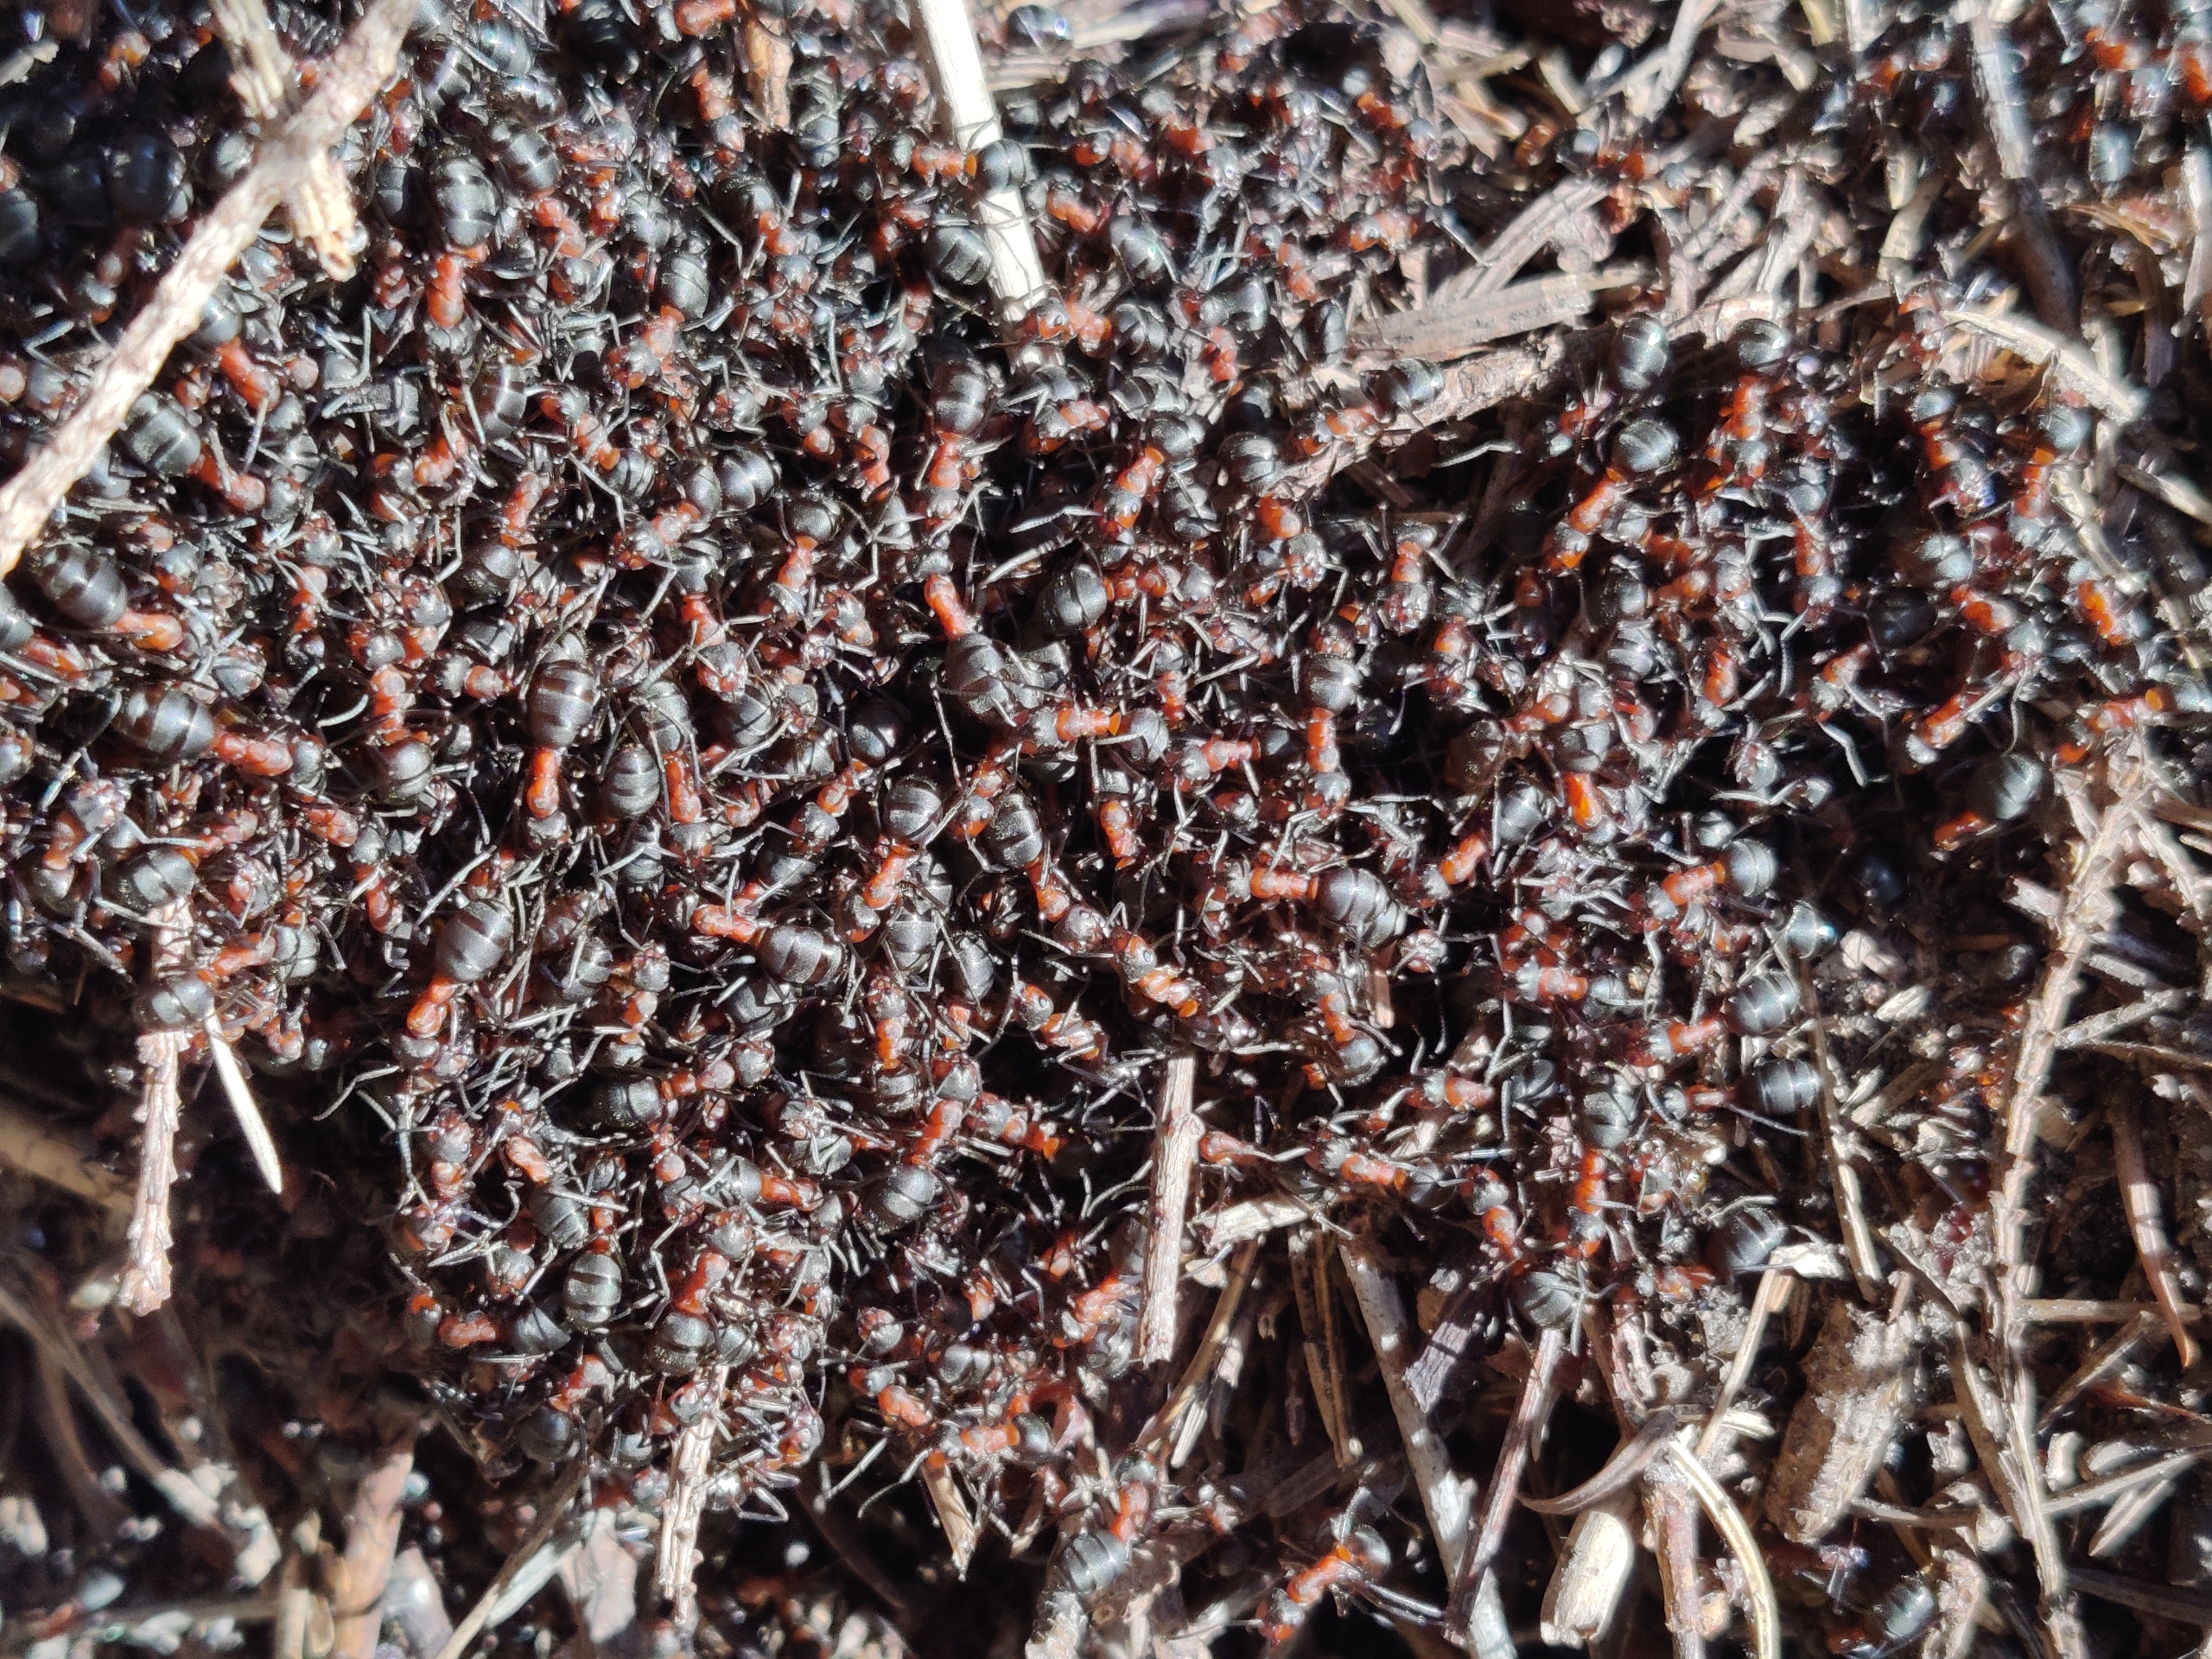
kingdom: Animalia
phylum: Arthropoda
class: Insecta
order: Hymenoptera
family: Formicidae
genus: Formica
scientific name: Formica
